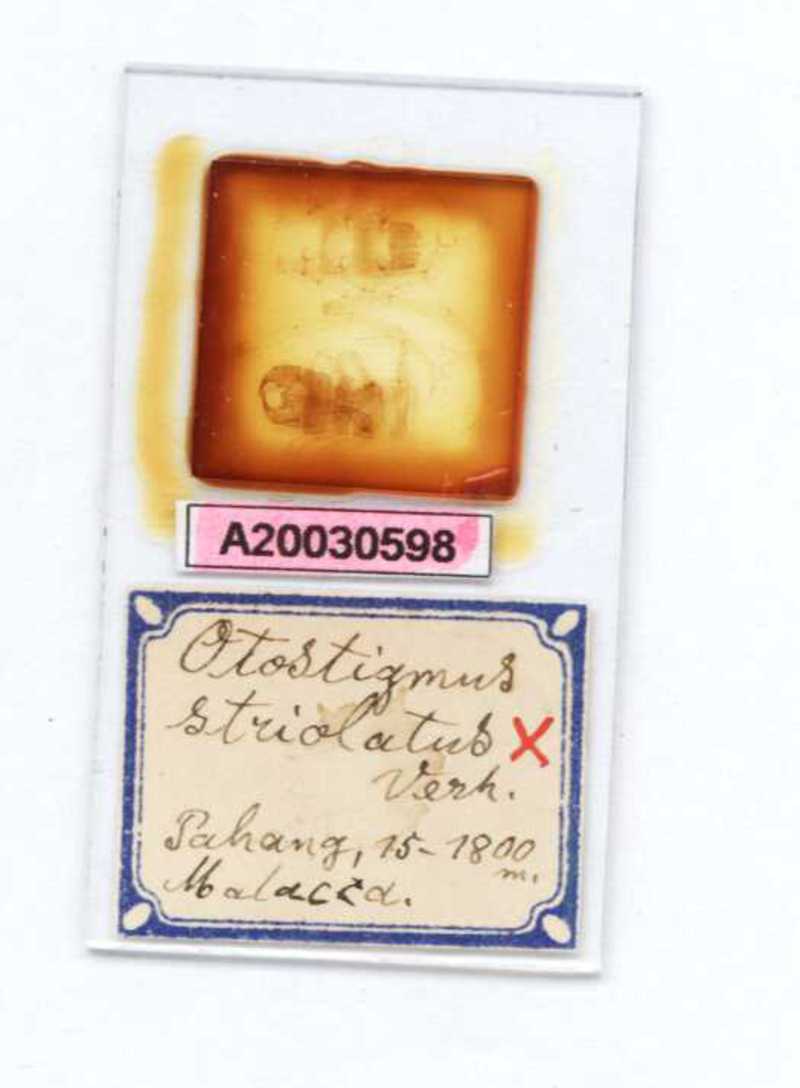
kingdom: Animalia
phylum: Arthropoda
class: Chilopoda
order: Scolopendromorpha
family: Scolopendridae
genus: Otostigmus
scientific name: Otostigmus striolatus
